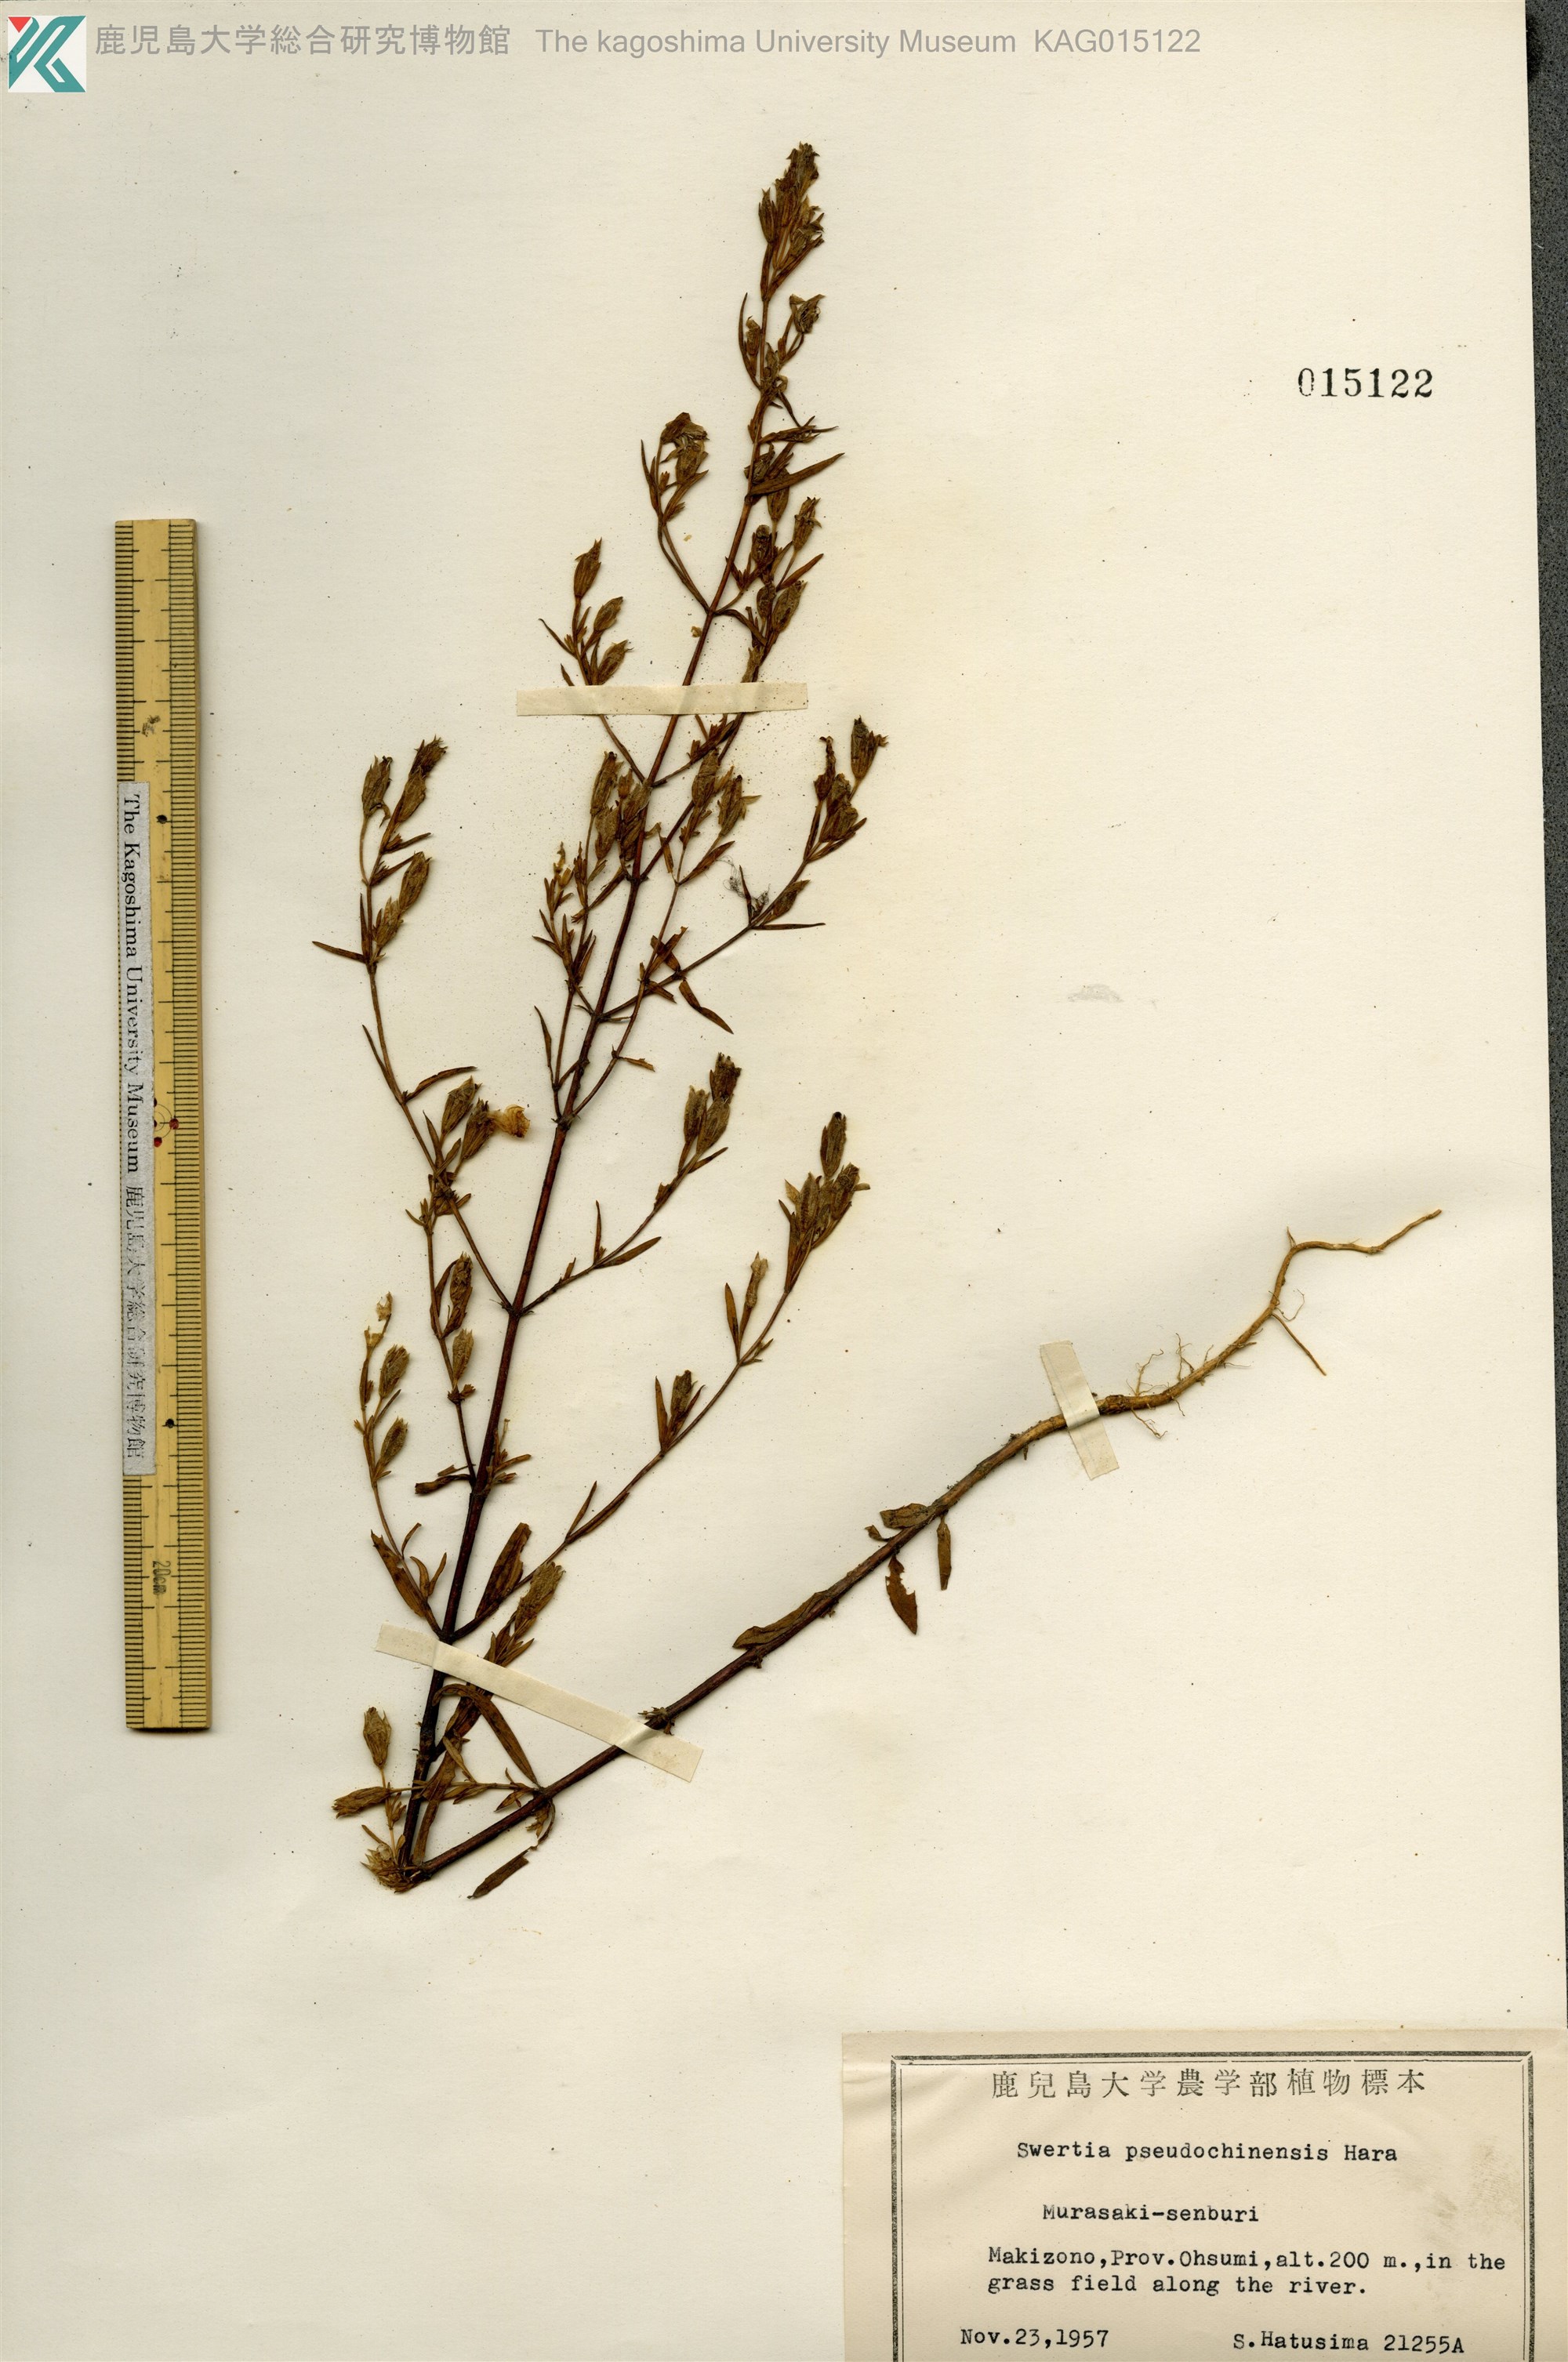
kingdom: Plantae
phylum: Tracheophyta
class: Magnoliopsida
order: Gentianales
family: Gentianaceae
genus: Swertia
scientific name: Swertia pseudochinensis
